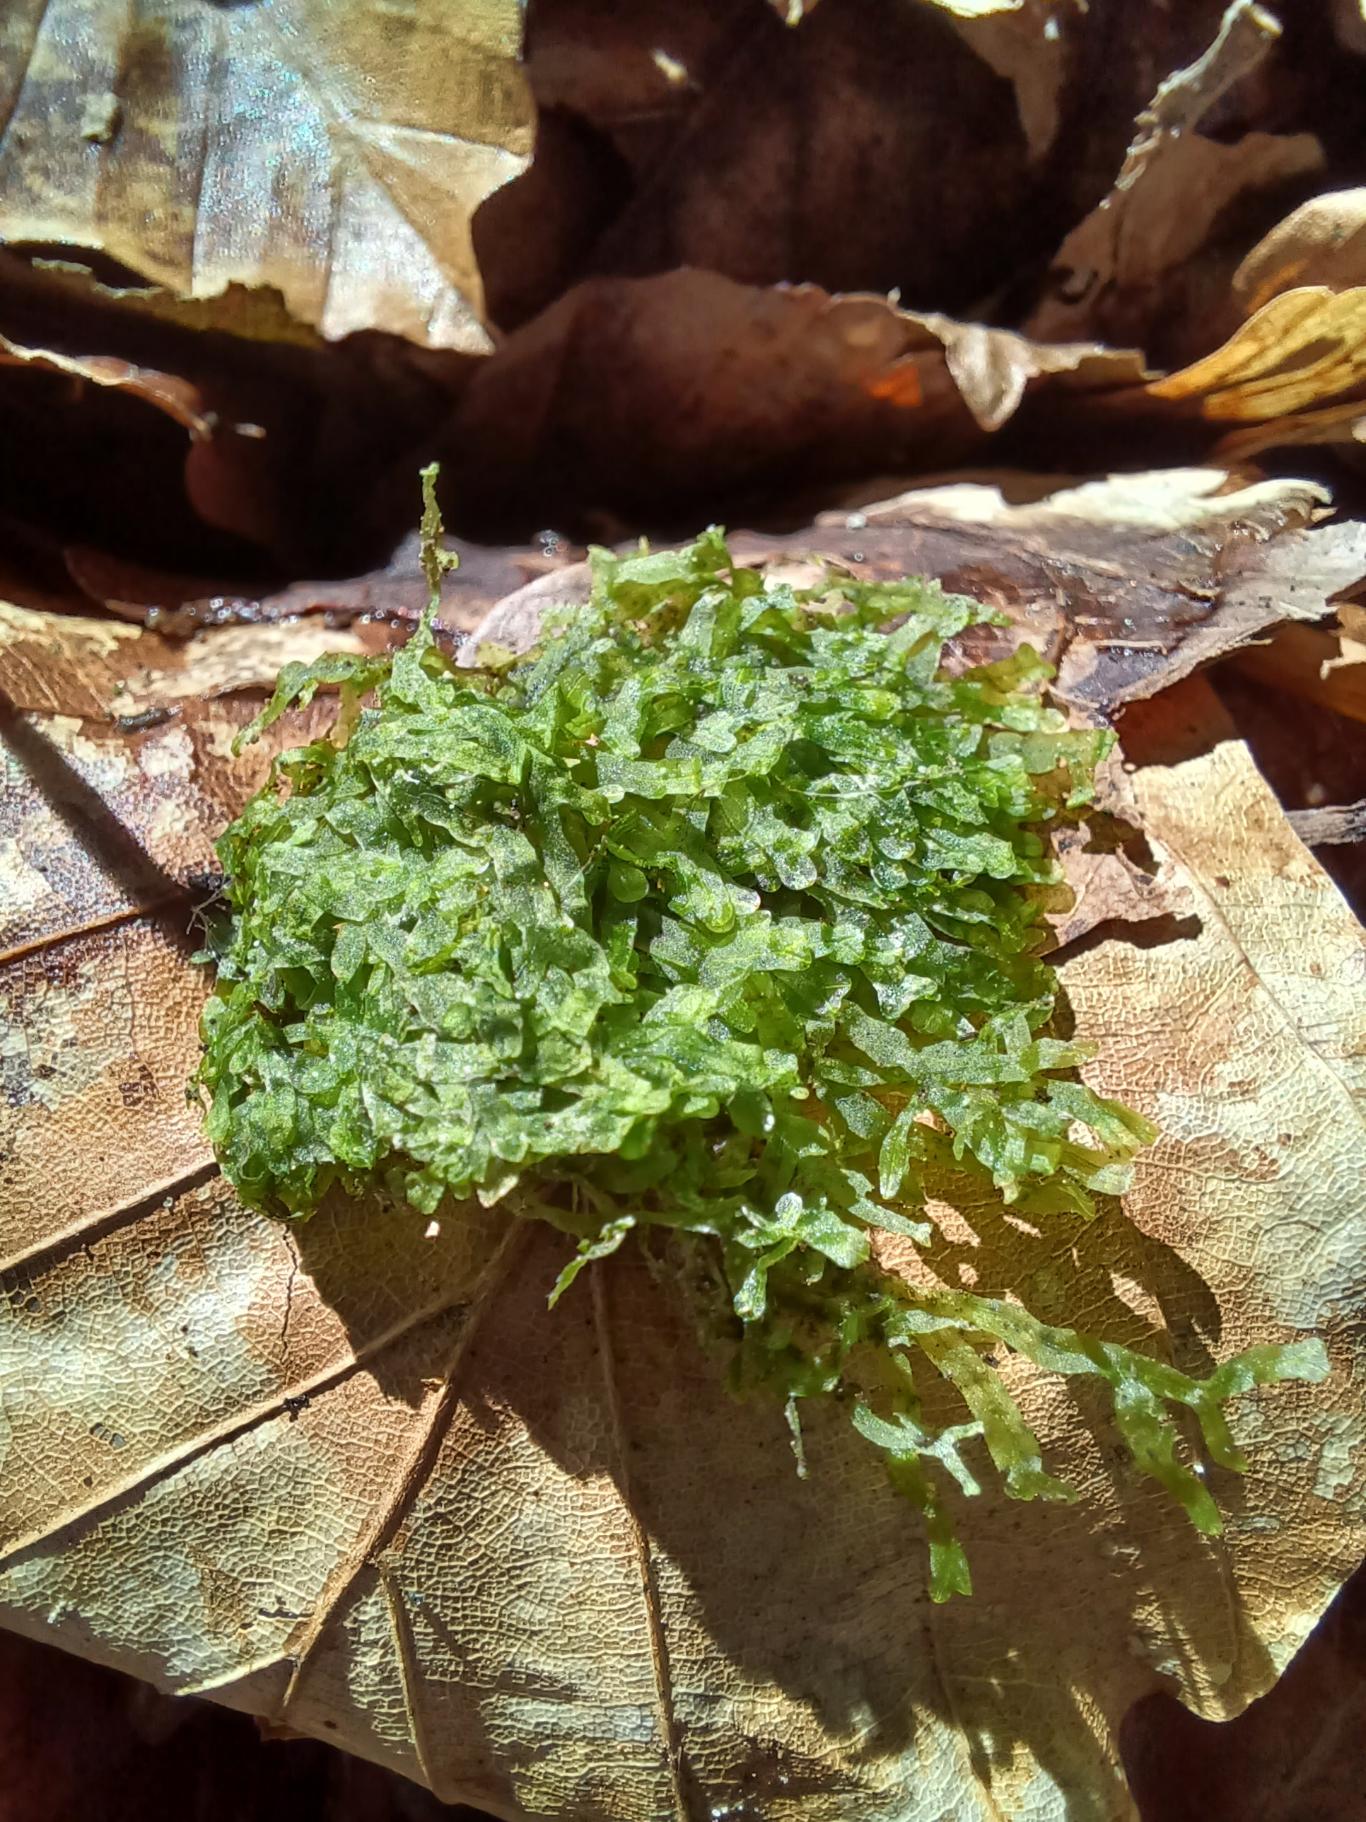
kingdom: Plantae
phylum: Marchantiophyta
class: Jungermanniopsida
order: Metzgeriales
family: Metzgeriaceae
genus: Metzgeria
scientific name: Metzgeria furcata
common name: Almindelig gaffelløv
